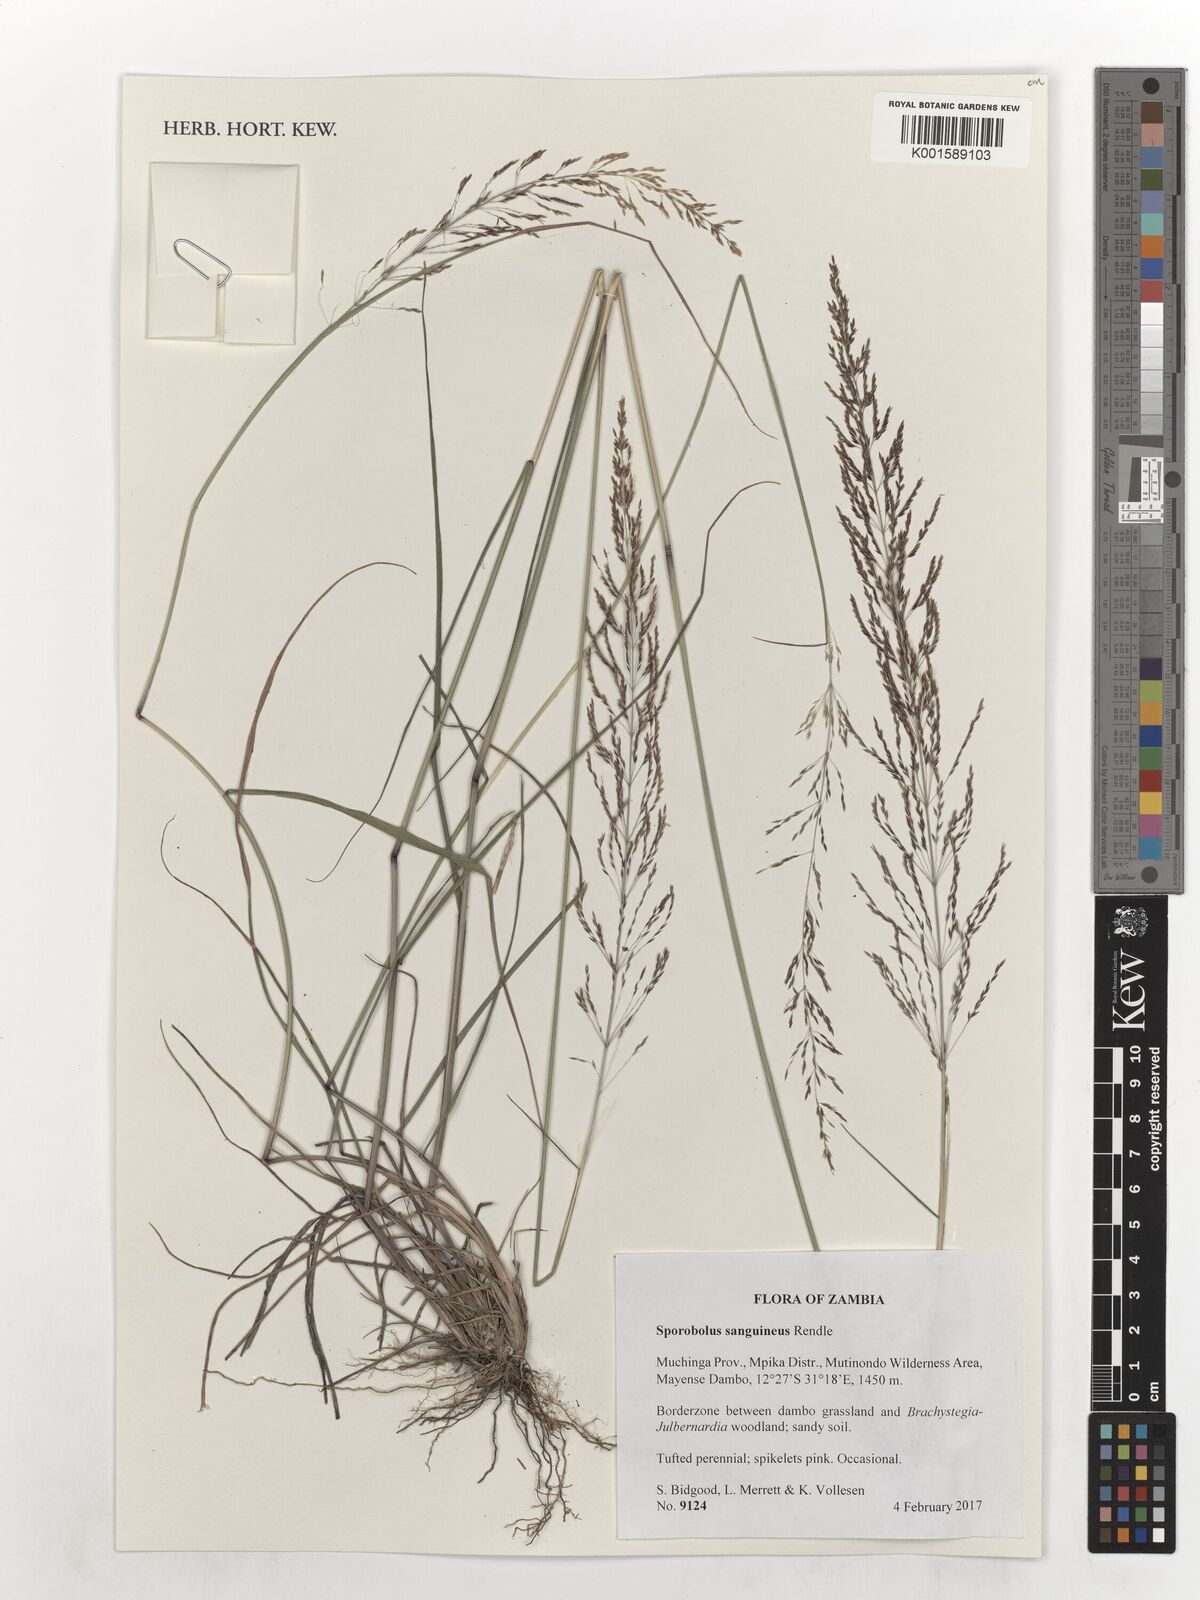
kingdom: Plantae
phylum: Tracheophyta
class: Liliopsida
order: Poales
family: Poaceae
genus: Sporobolus
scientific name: Sporobolus sanguineus
